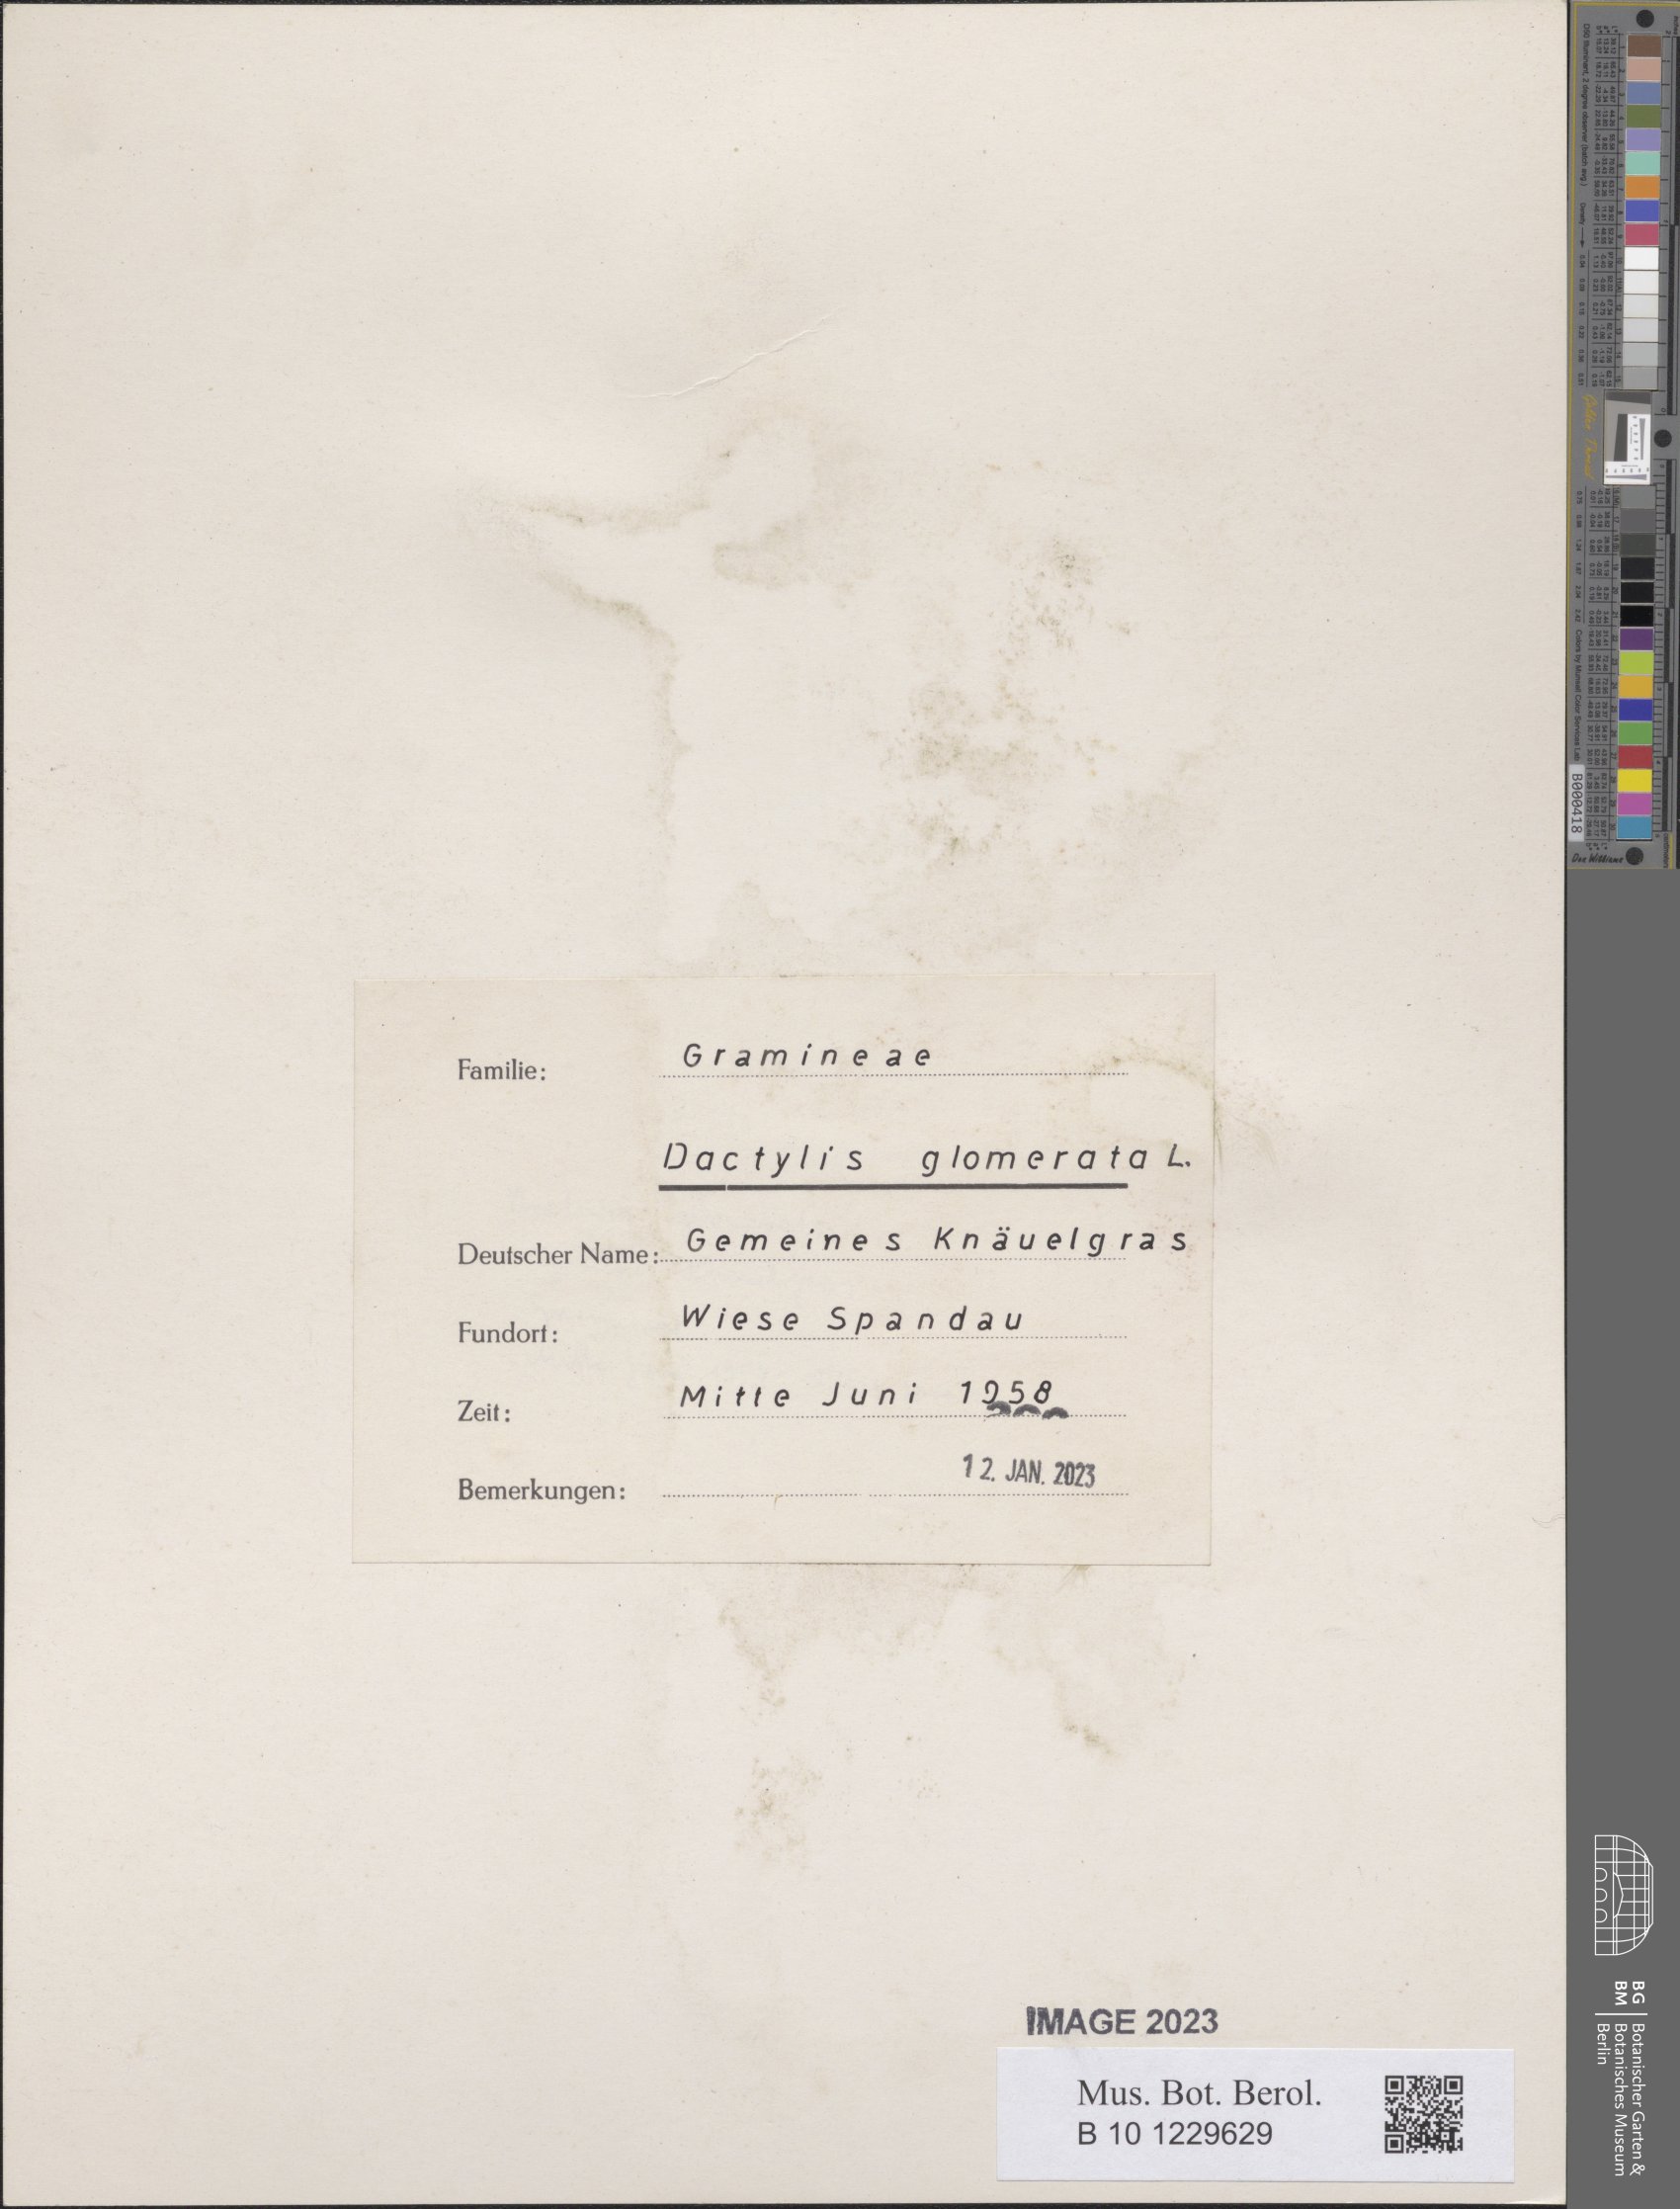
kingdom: Plantae
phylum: Tracheophyta
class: Liliopsida
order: Poales
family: Poaceae
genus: Dactylis
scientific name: Dactylis glomerata
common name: Orchardgrass
